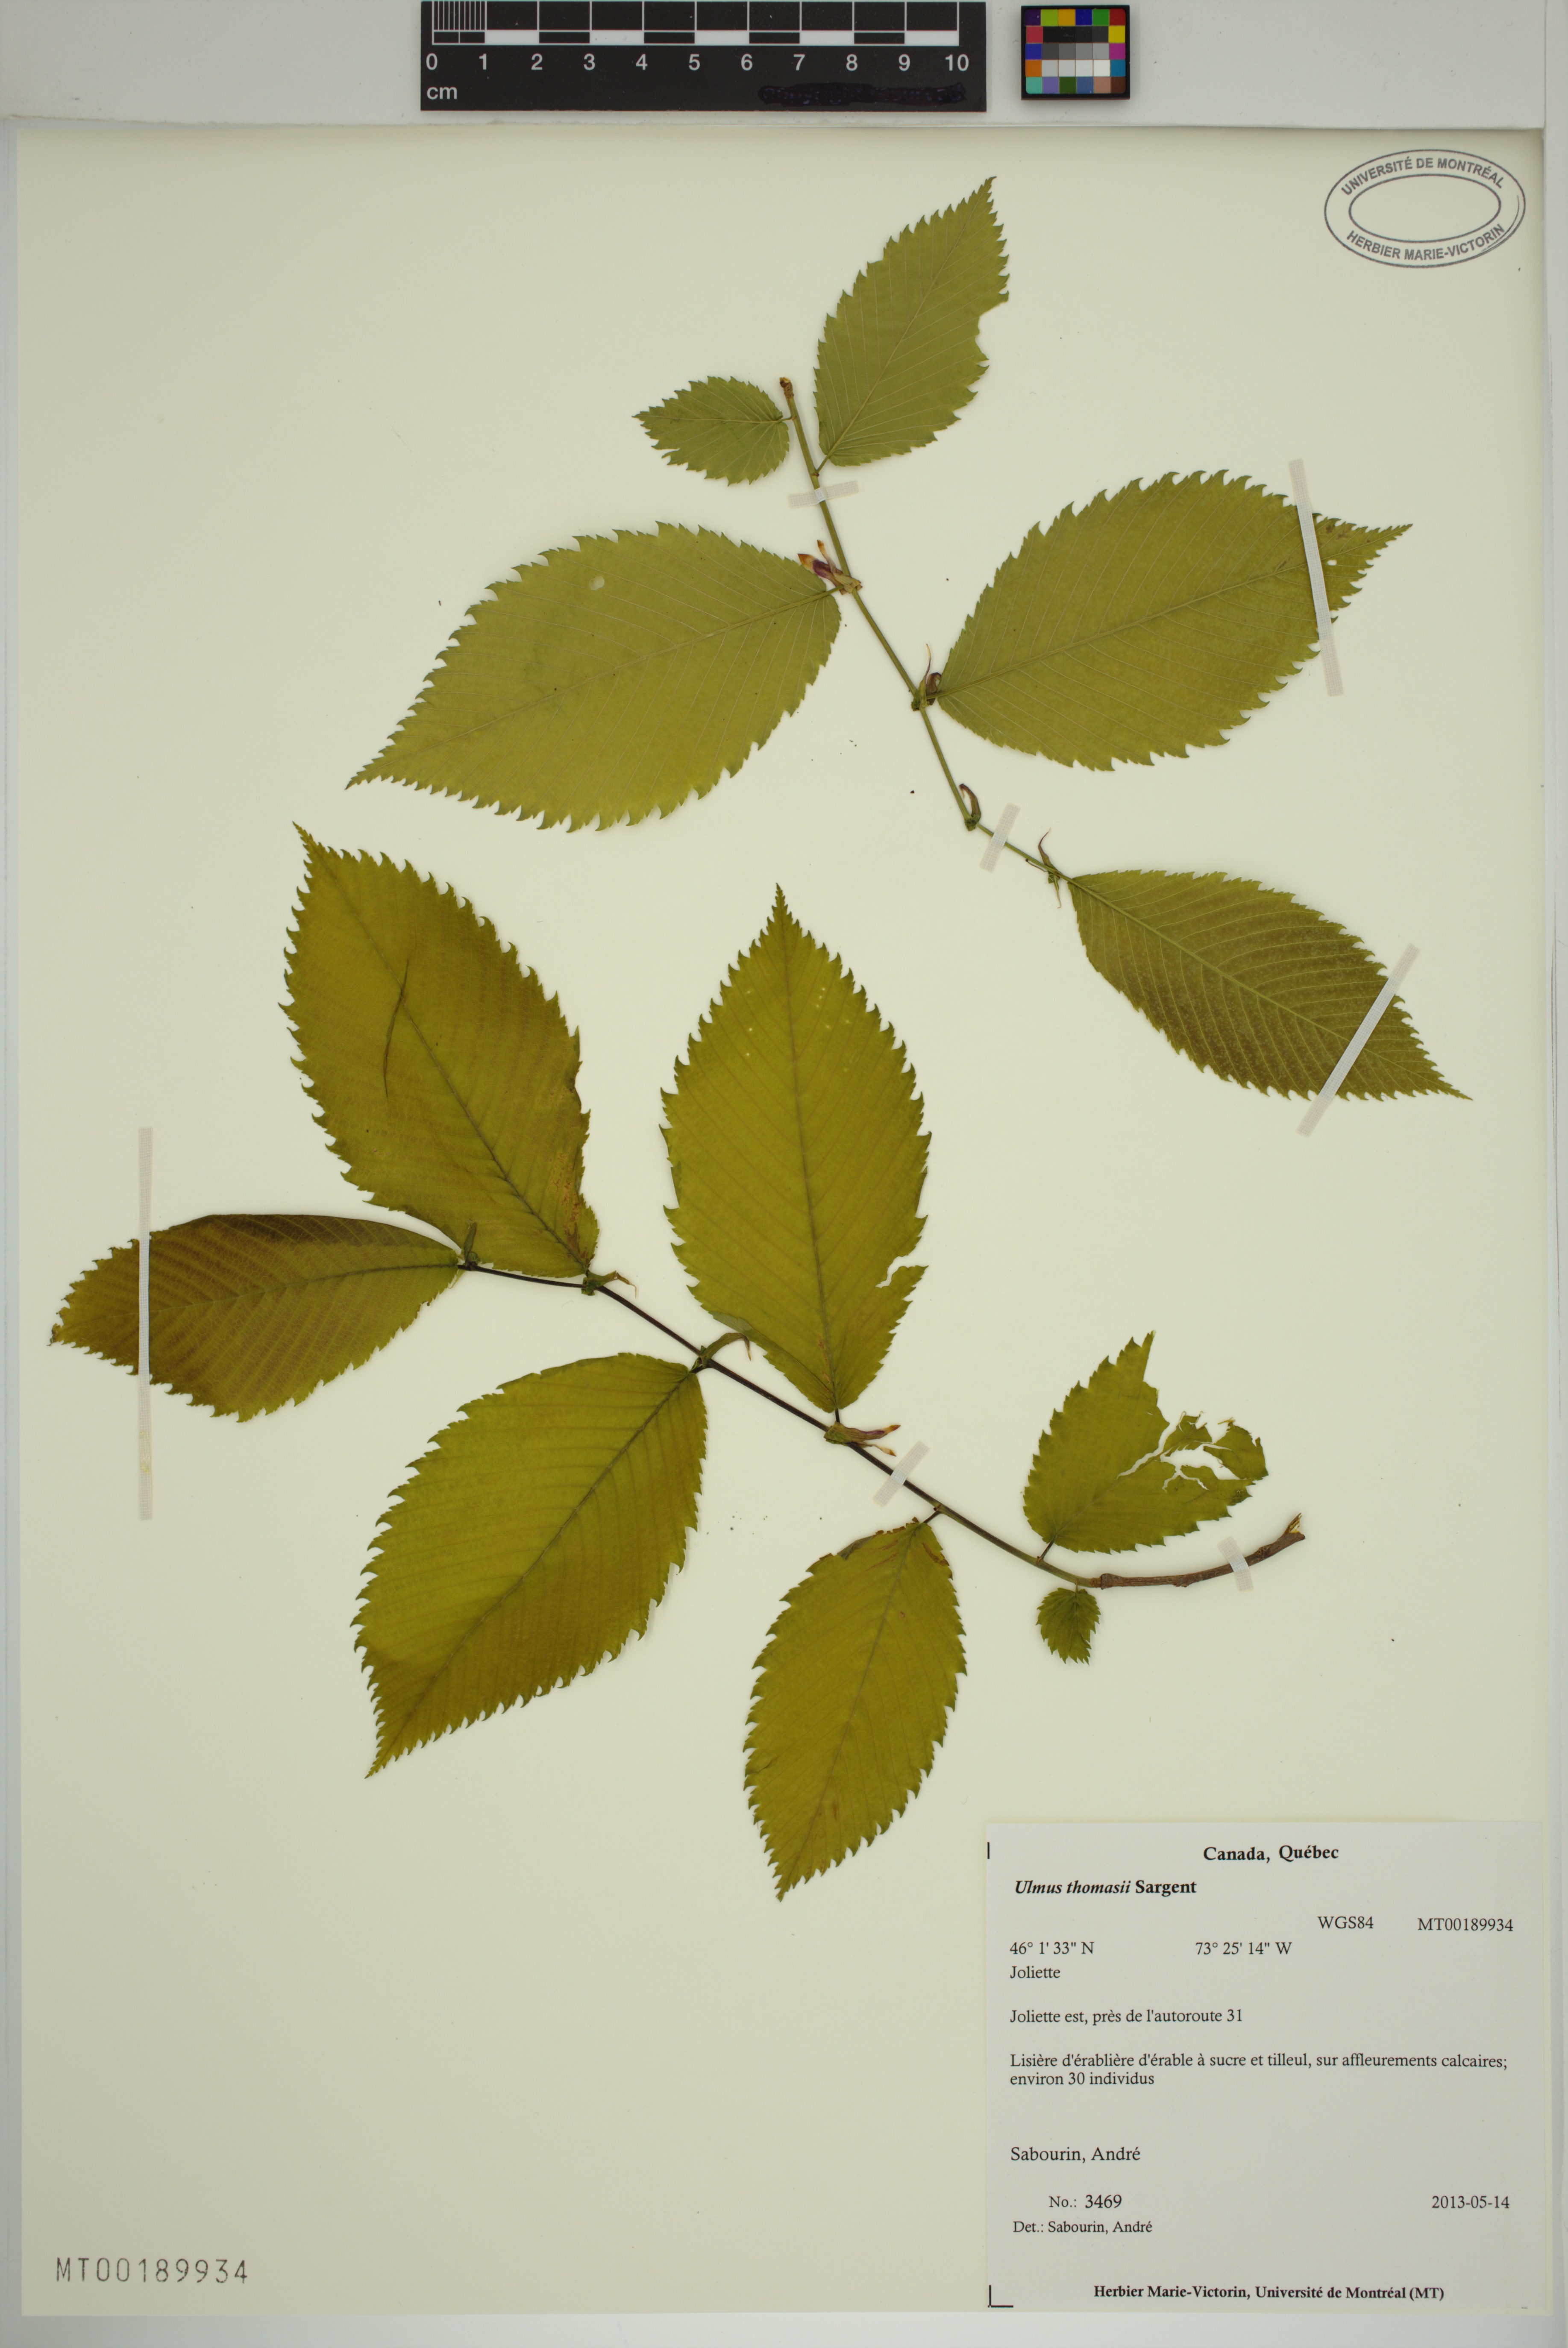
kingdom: Plantae
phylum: Tracheophyta
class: Magnoliopsida
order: Rosales
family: Ulmaceae
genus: Ulmus
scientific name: Ulmus thomasii
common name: Rock elm
